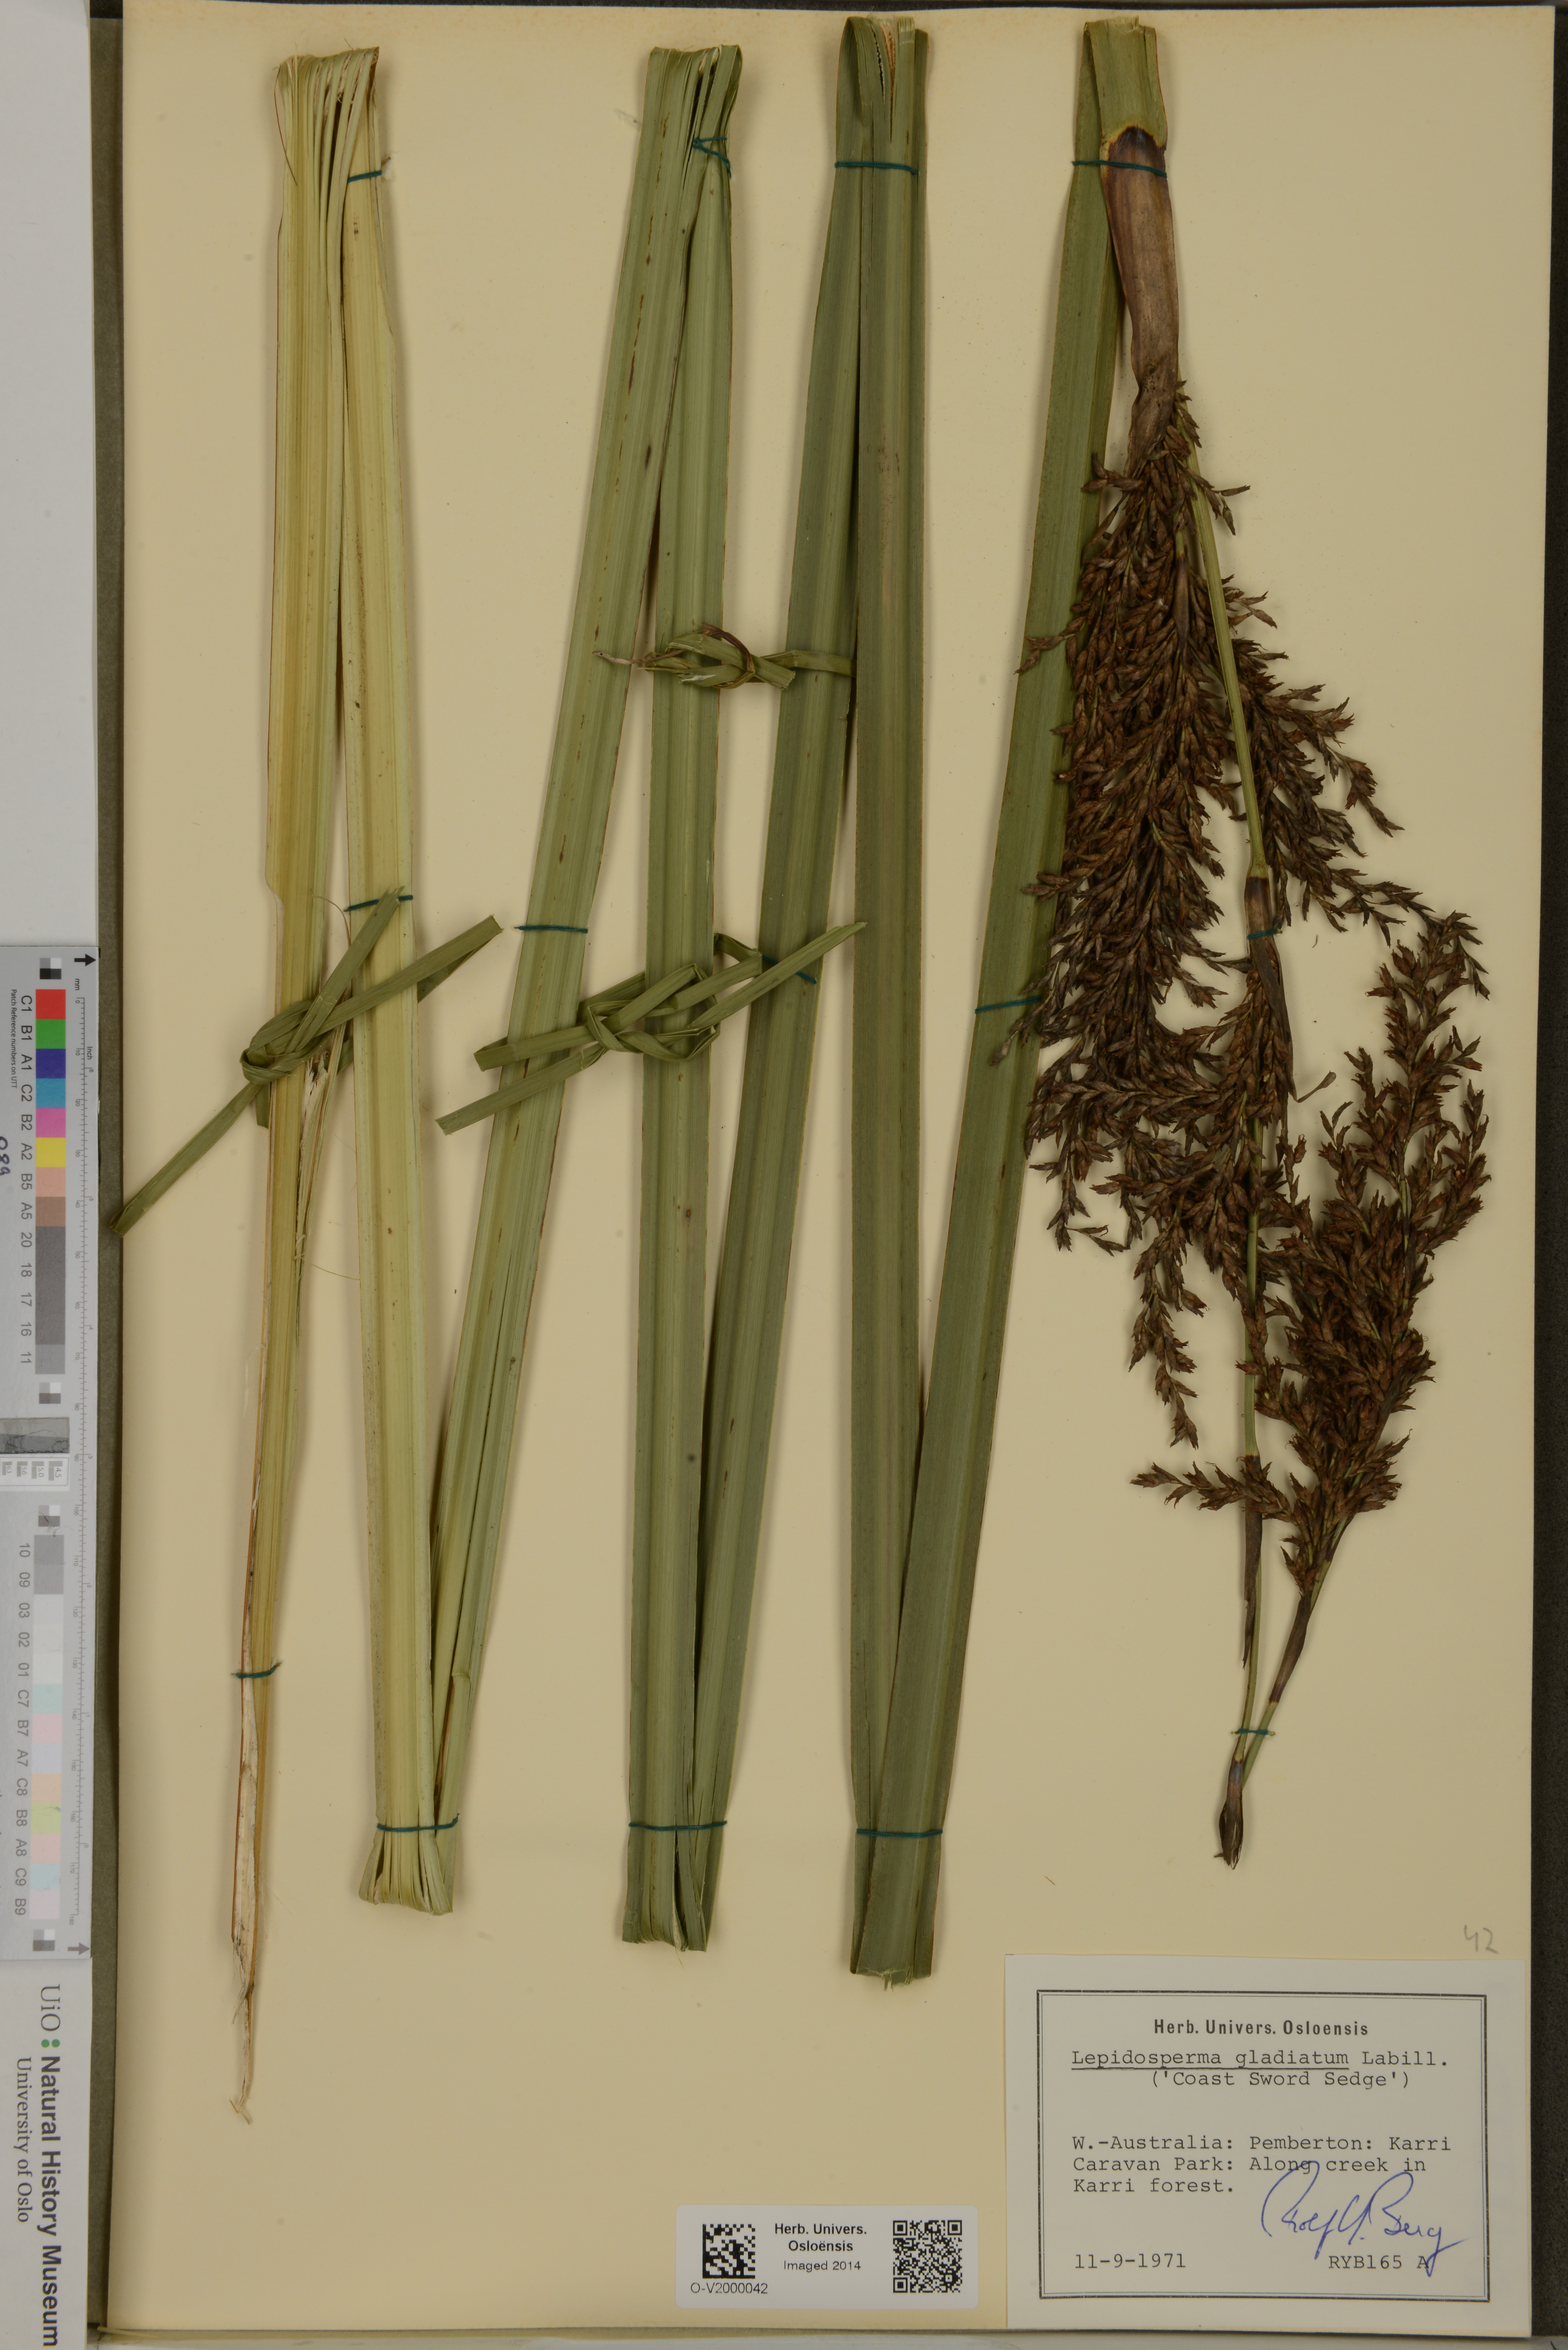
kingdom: Plantae
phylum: Tracheophyta
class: Liliopsida
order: Poales
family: Cyperaceae
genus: Lepidosperma
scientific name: Lepidosperma gladiatum
